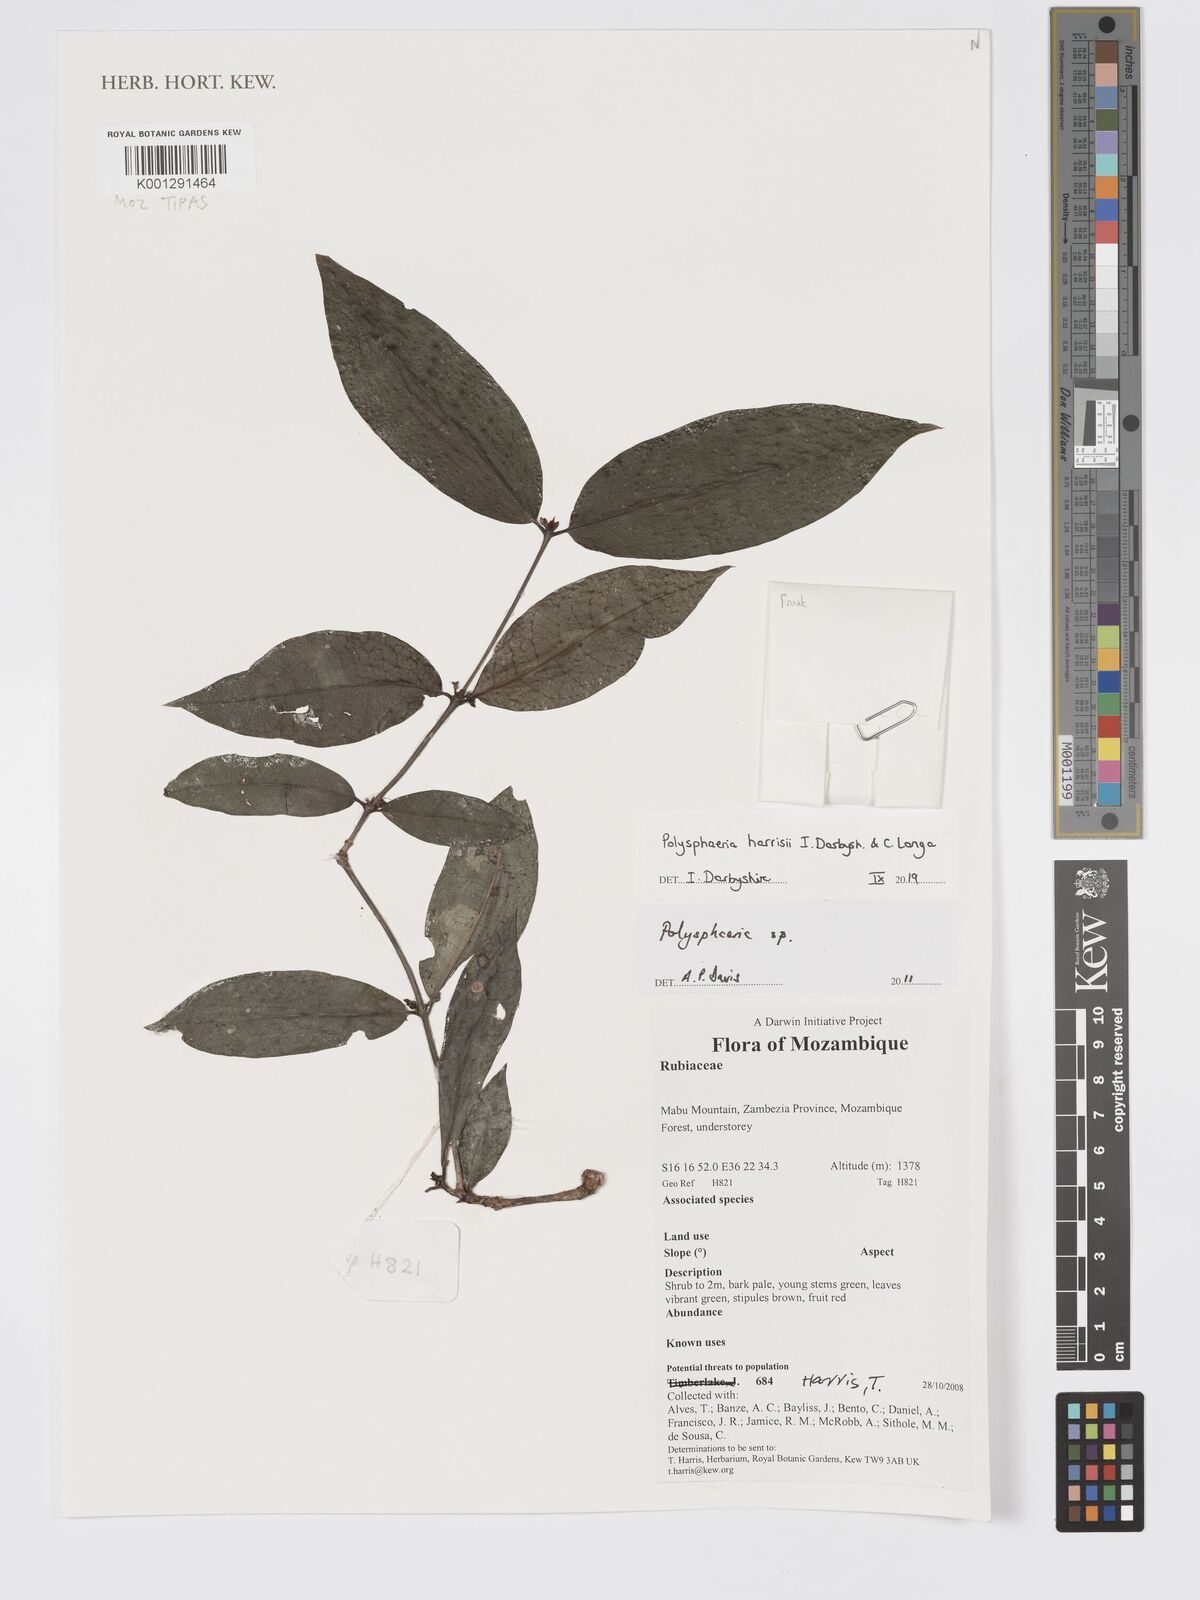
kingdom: Plantae
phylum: Tracheophyta
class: Magnoliopsida
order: Gentianales
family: Rubiaceae
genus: Polysphaeria
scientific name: Polysphaeria harrisii
